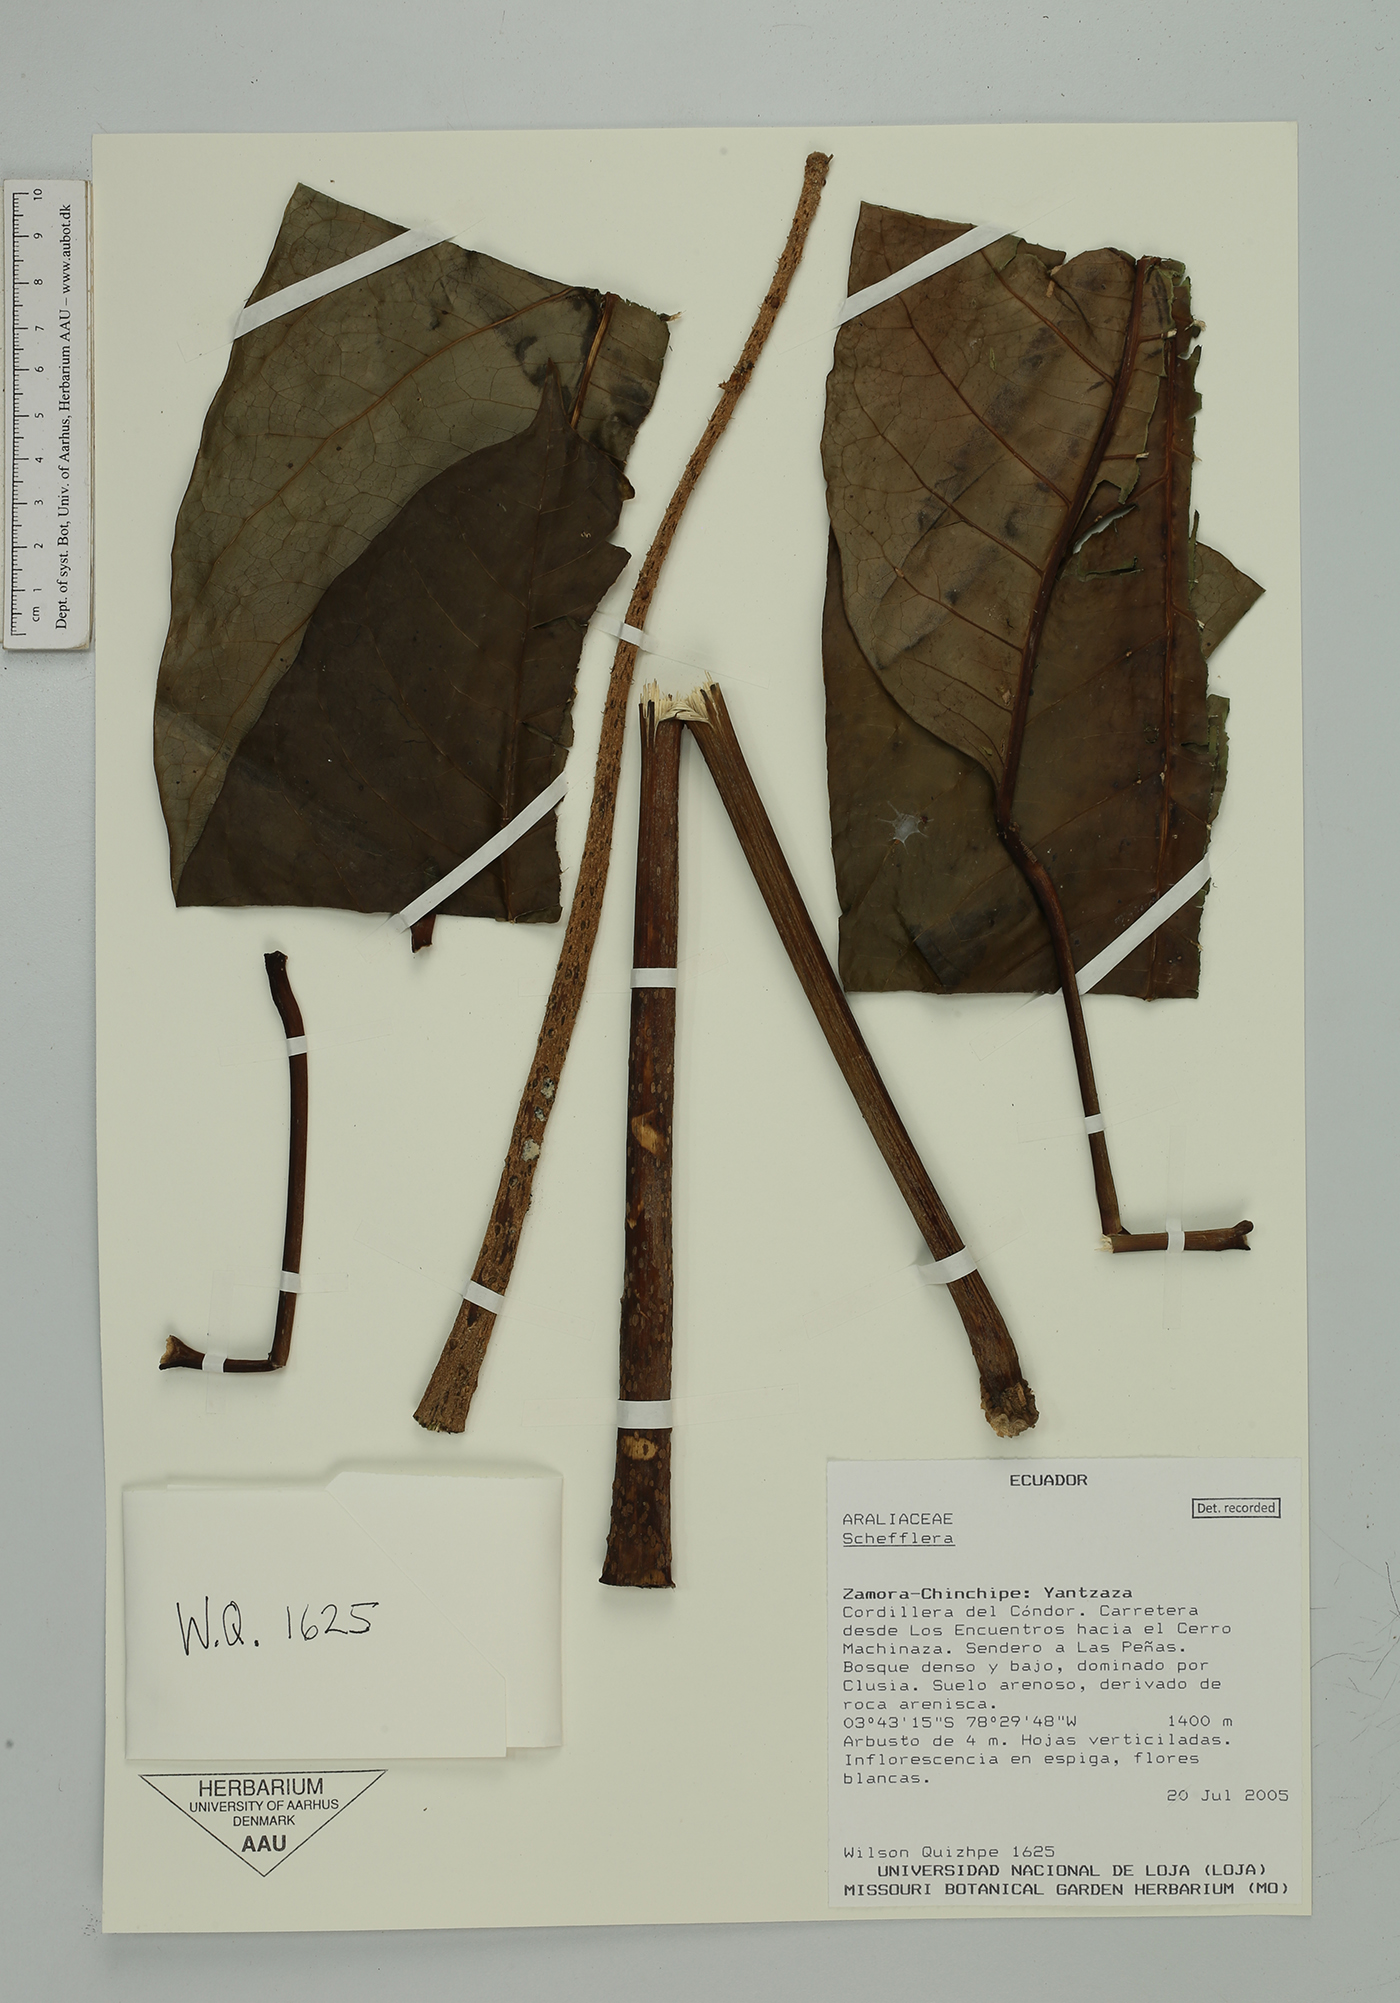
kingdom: Plantae
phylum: Tracheophyta
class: Magnoliopsida
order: Apiales
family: Araliaceae
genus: Sciodaphyllum
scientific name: Sciodaphyllum
